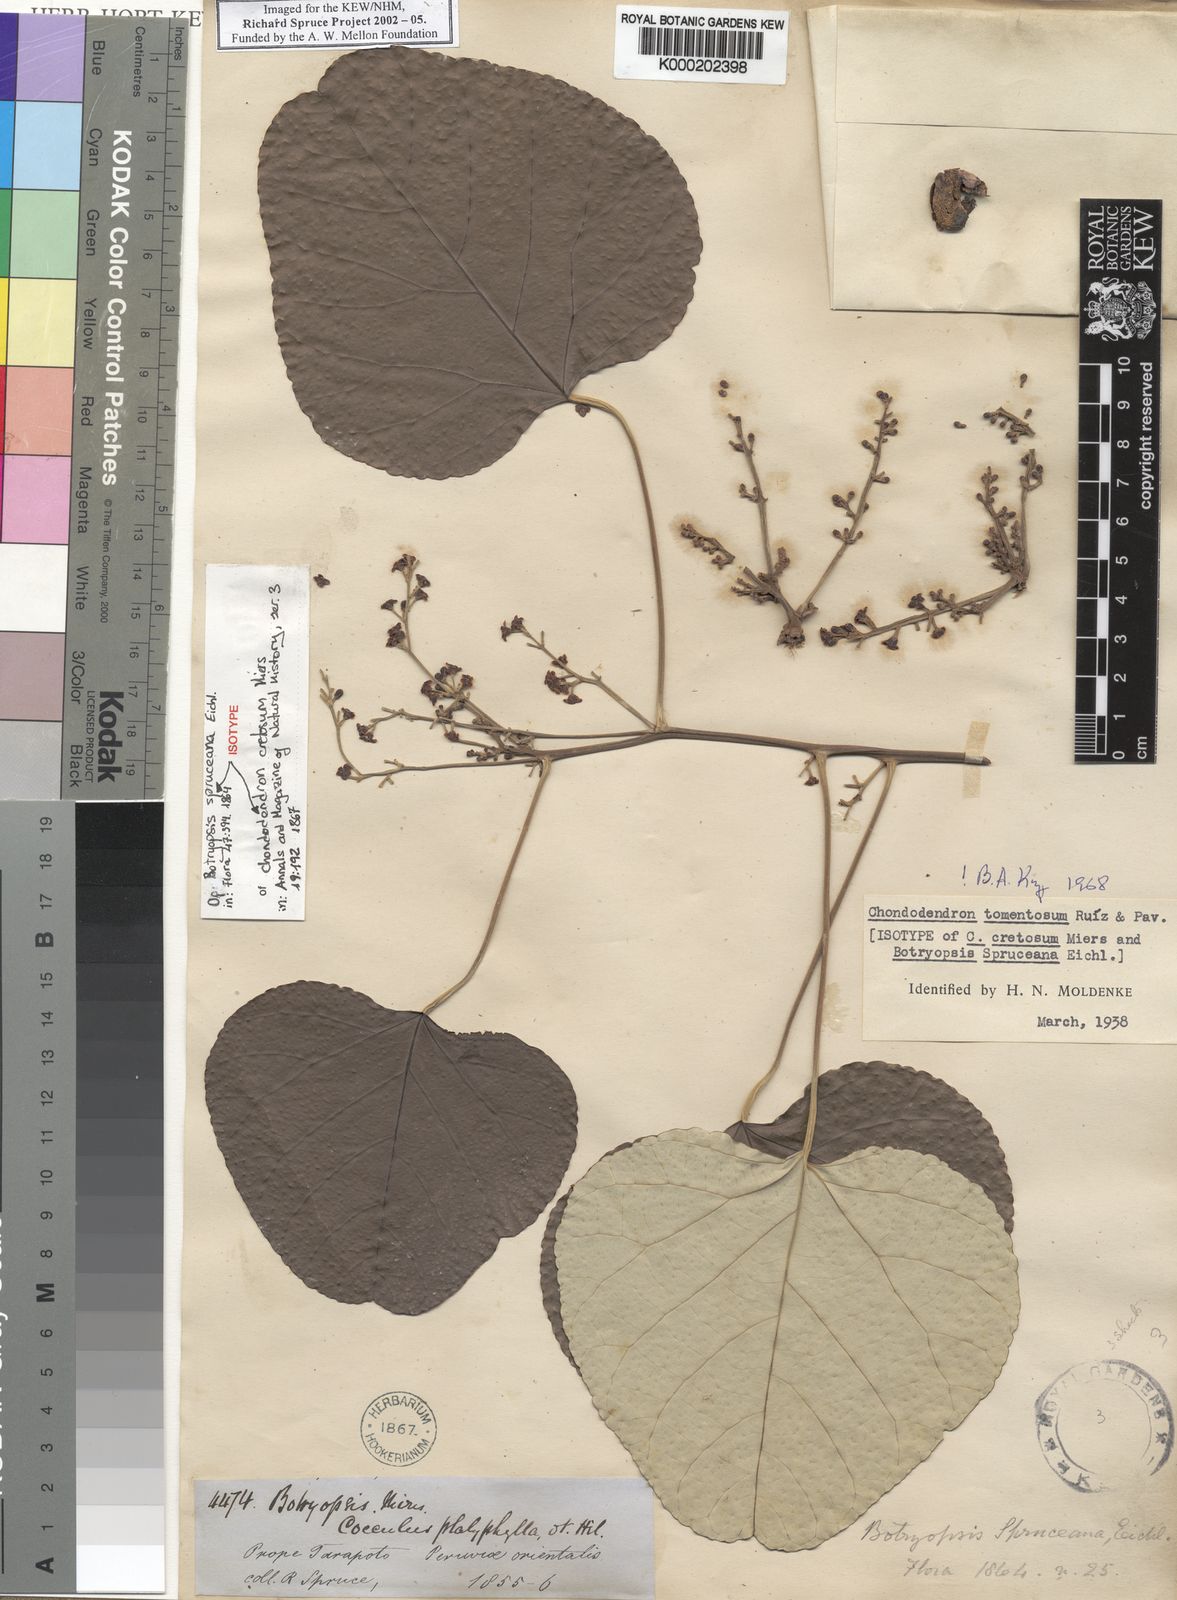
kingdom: Plantae
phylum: Tracheophyta
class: Magnoliopsida
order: Ranunculales
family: Menispermaceae
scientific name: Menispermaceae
